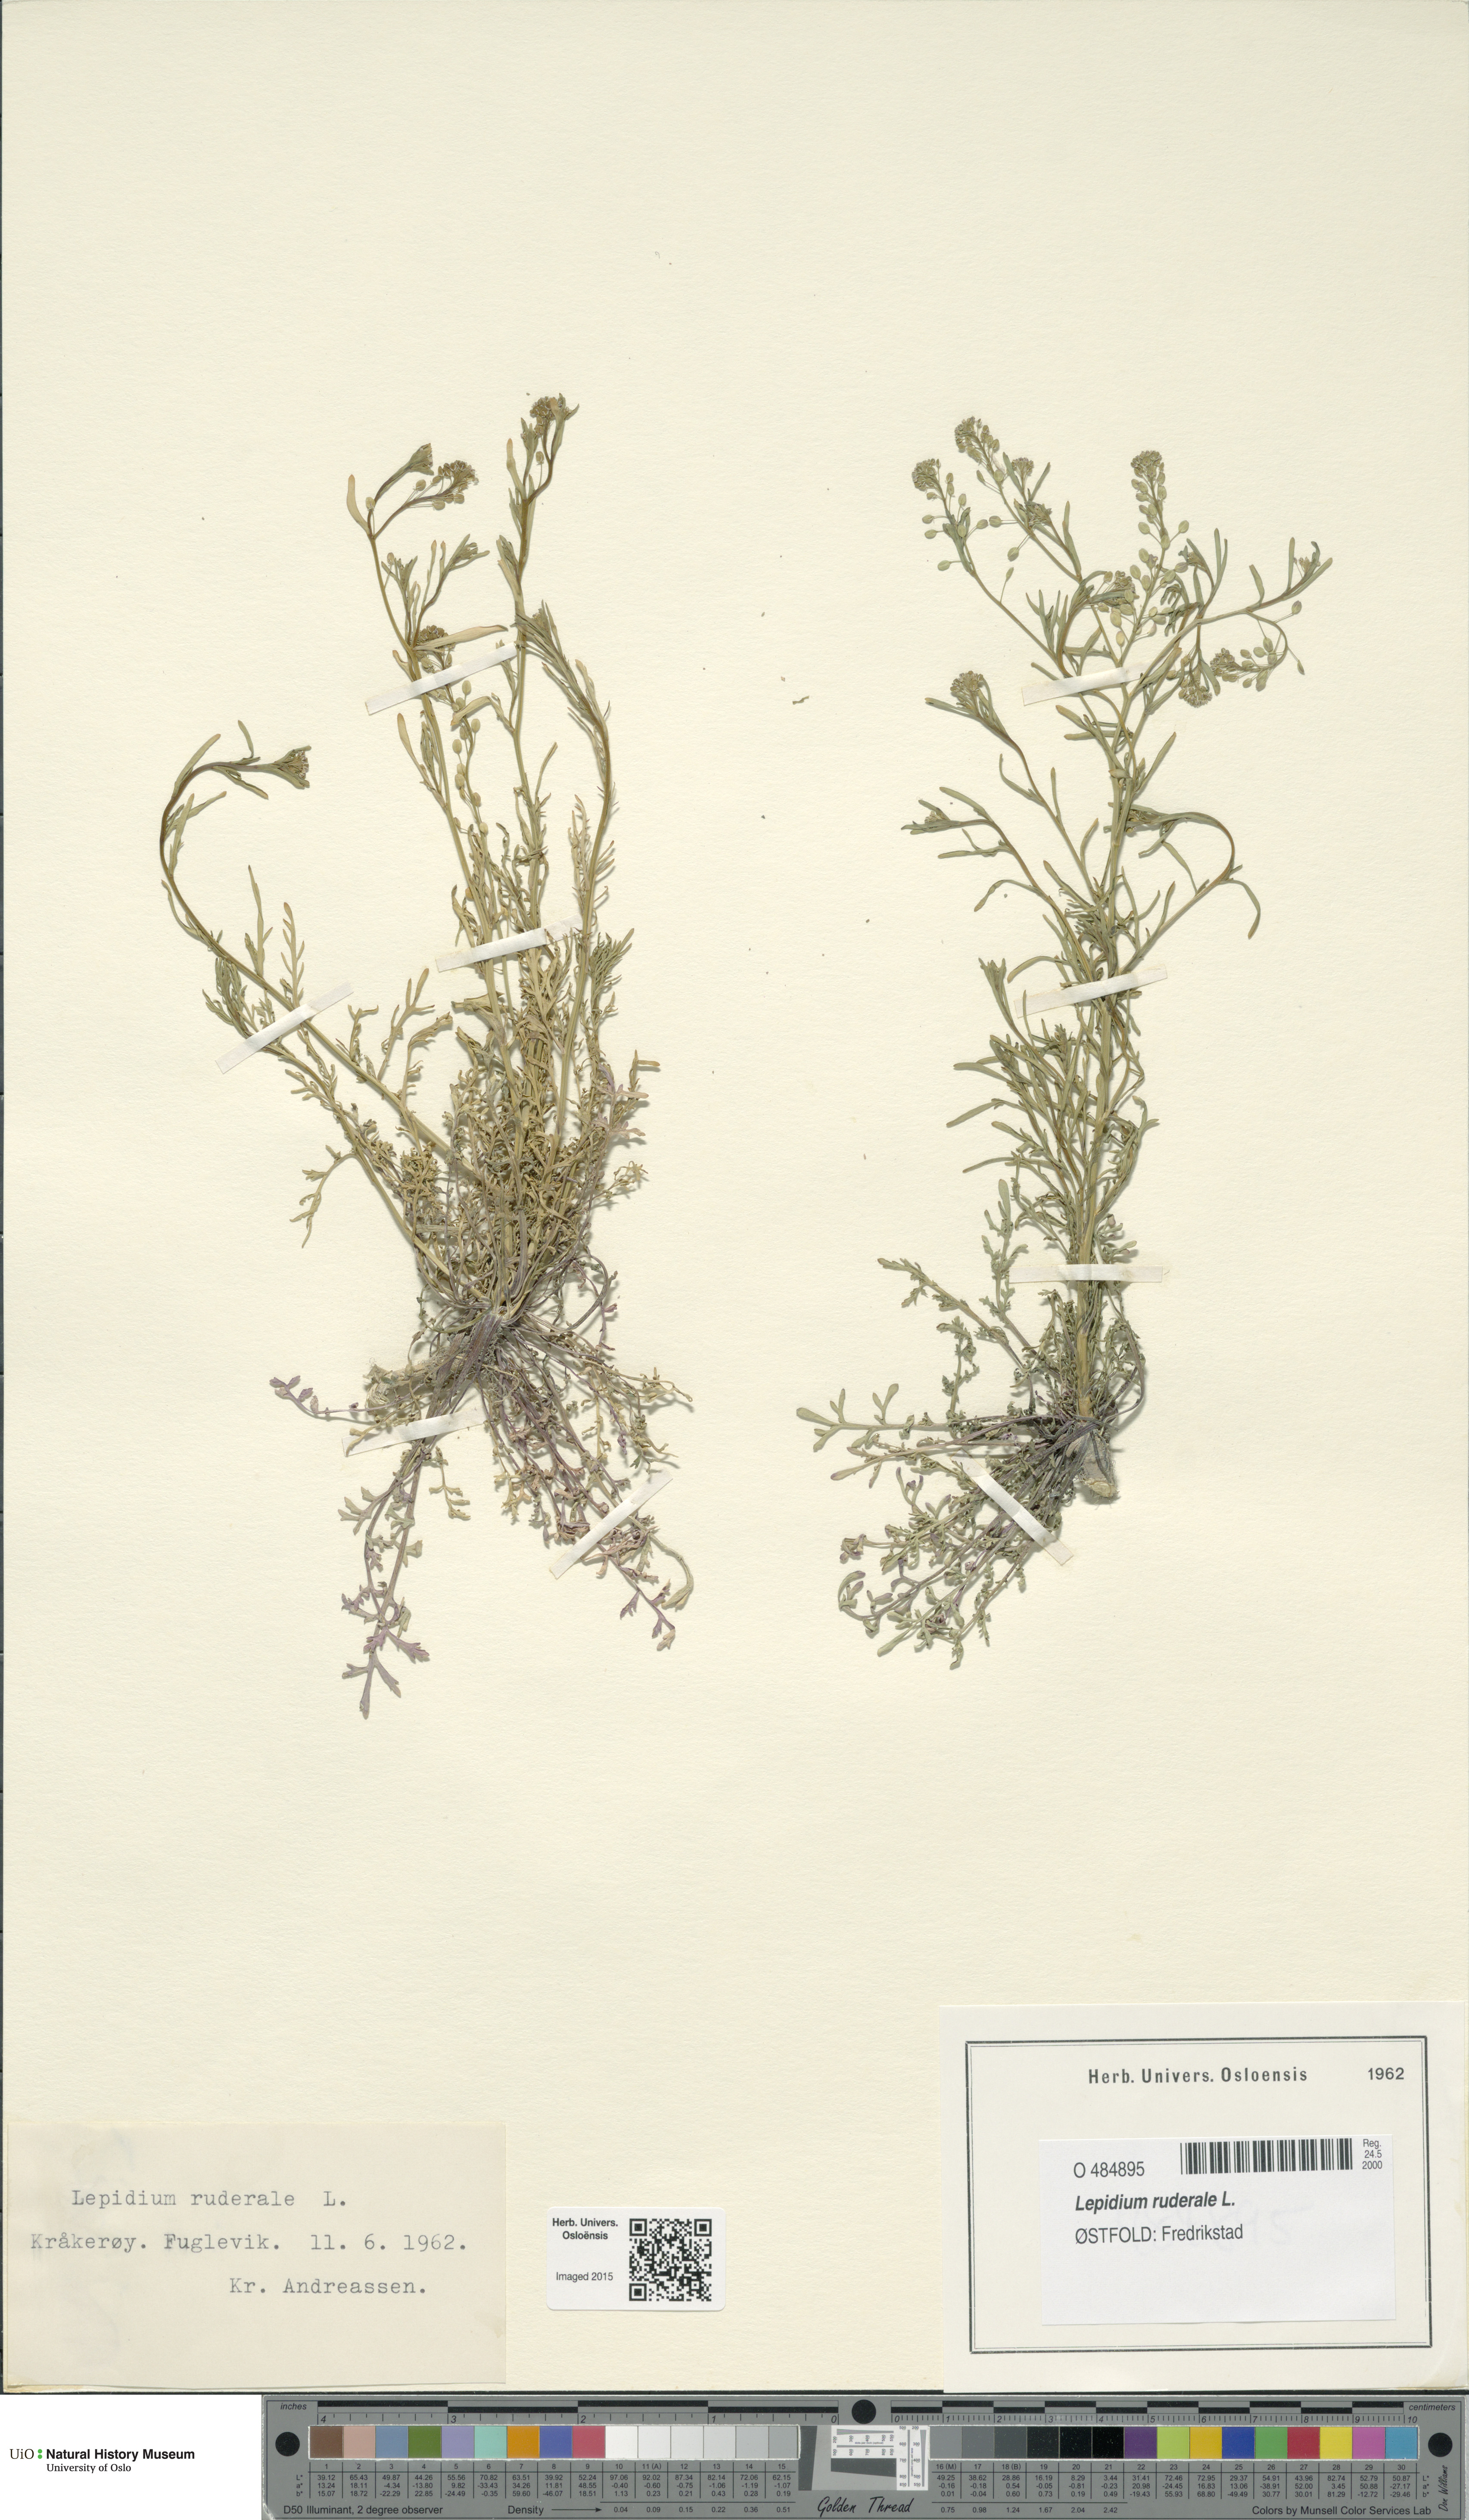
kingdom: Plantae
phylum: Tracheophyta
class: Magnoliopsida
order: Brassicales
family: Brassicaceae
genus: Lepidium
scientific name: Lepidium ruderale
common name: Narrow-leaved pepperwort
